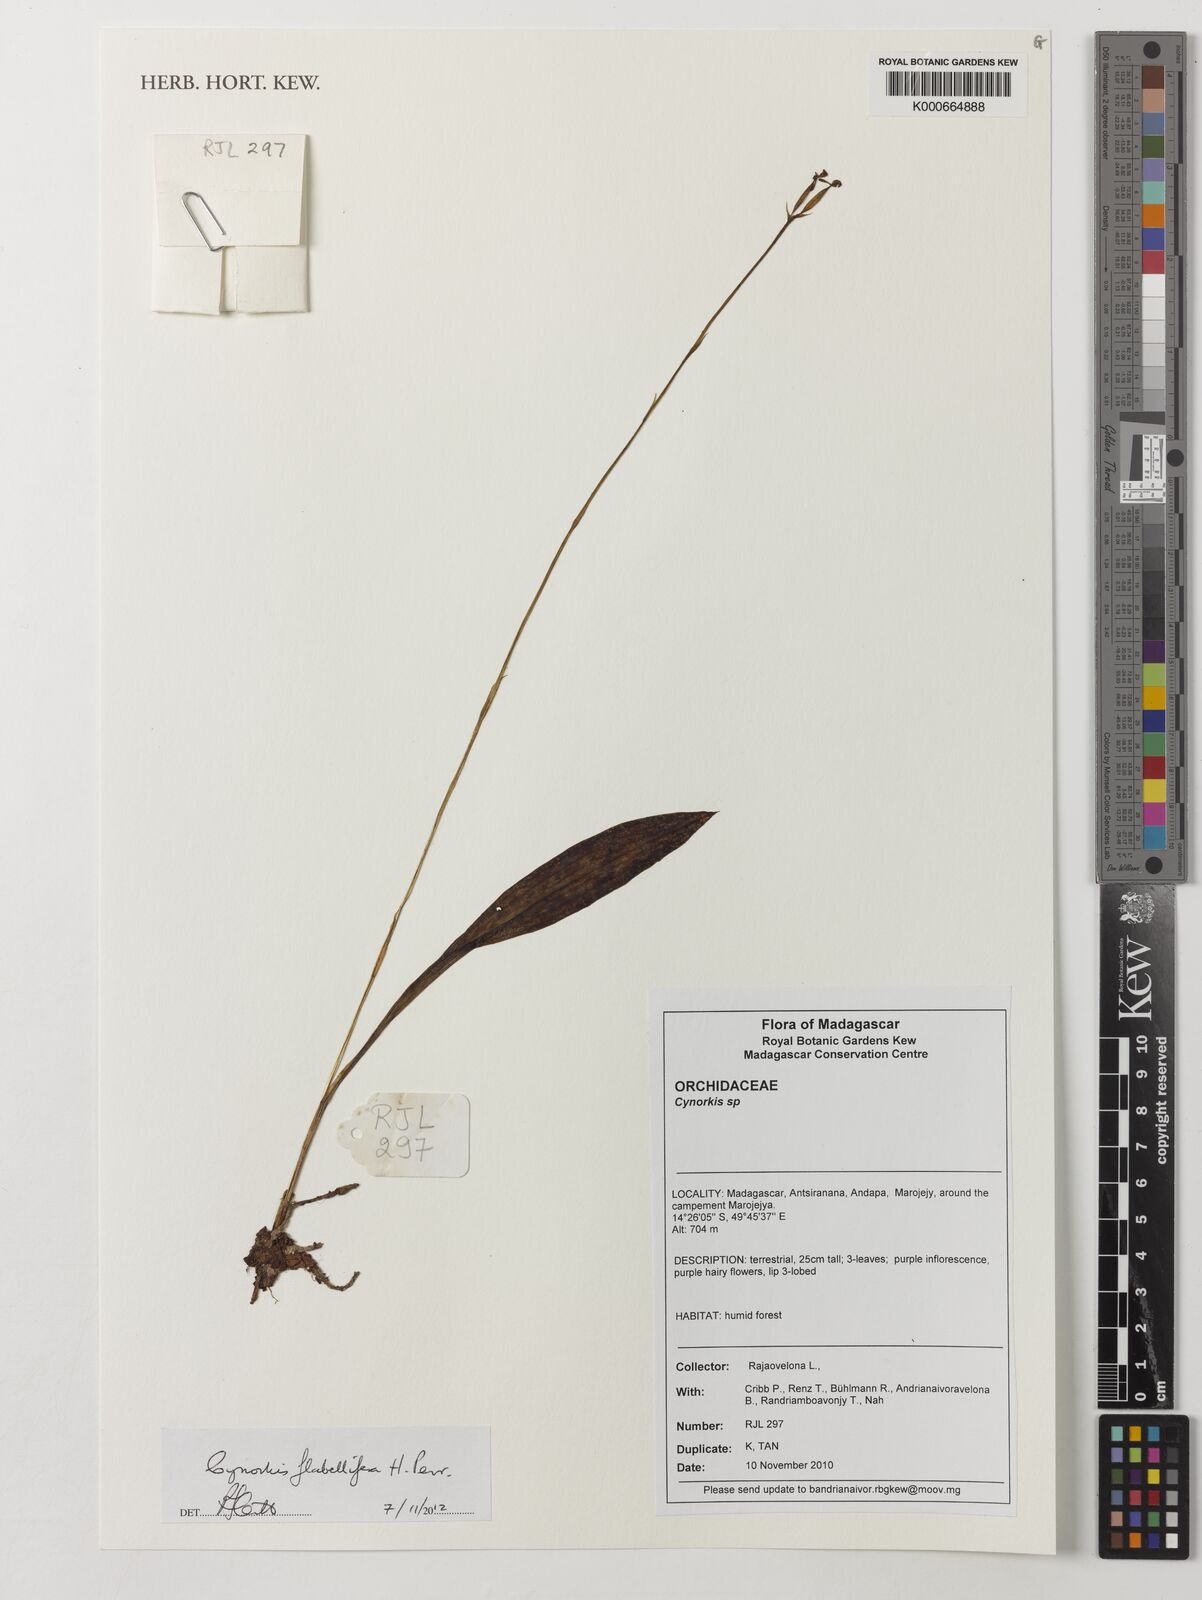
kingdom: Plantae
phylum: Tracheophyta
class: Liliopsida
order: Asparagales
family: Orchidaceae
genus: Cynorkis
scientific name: Cynorkis flabellifera
